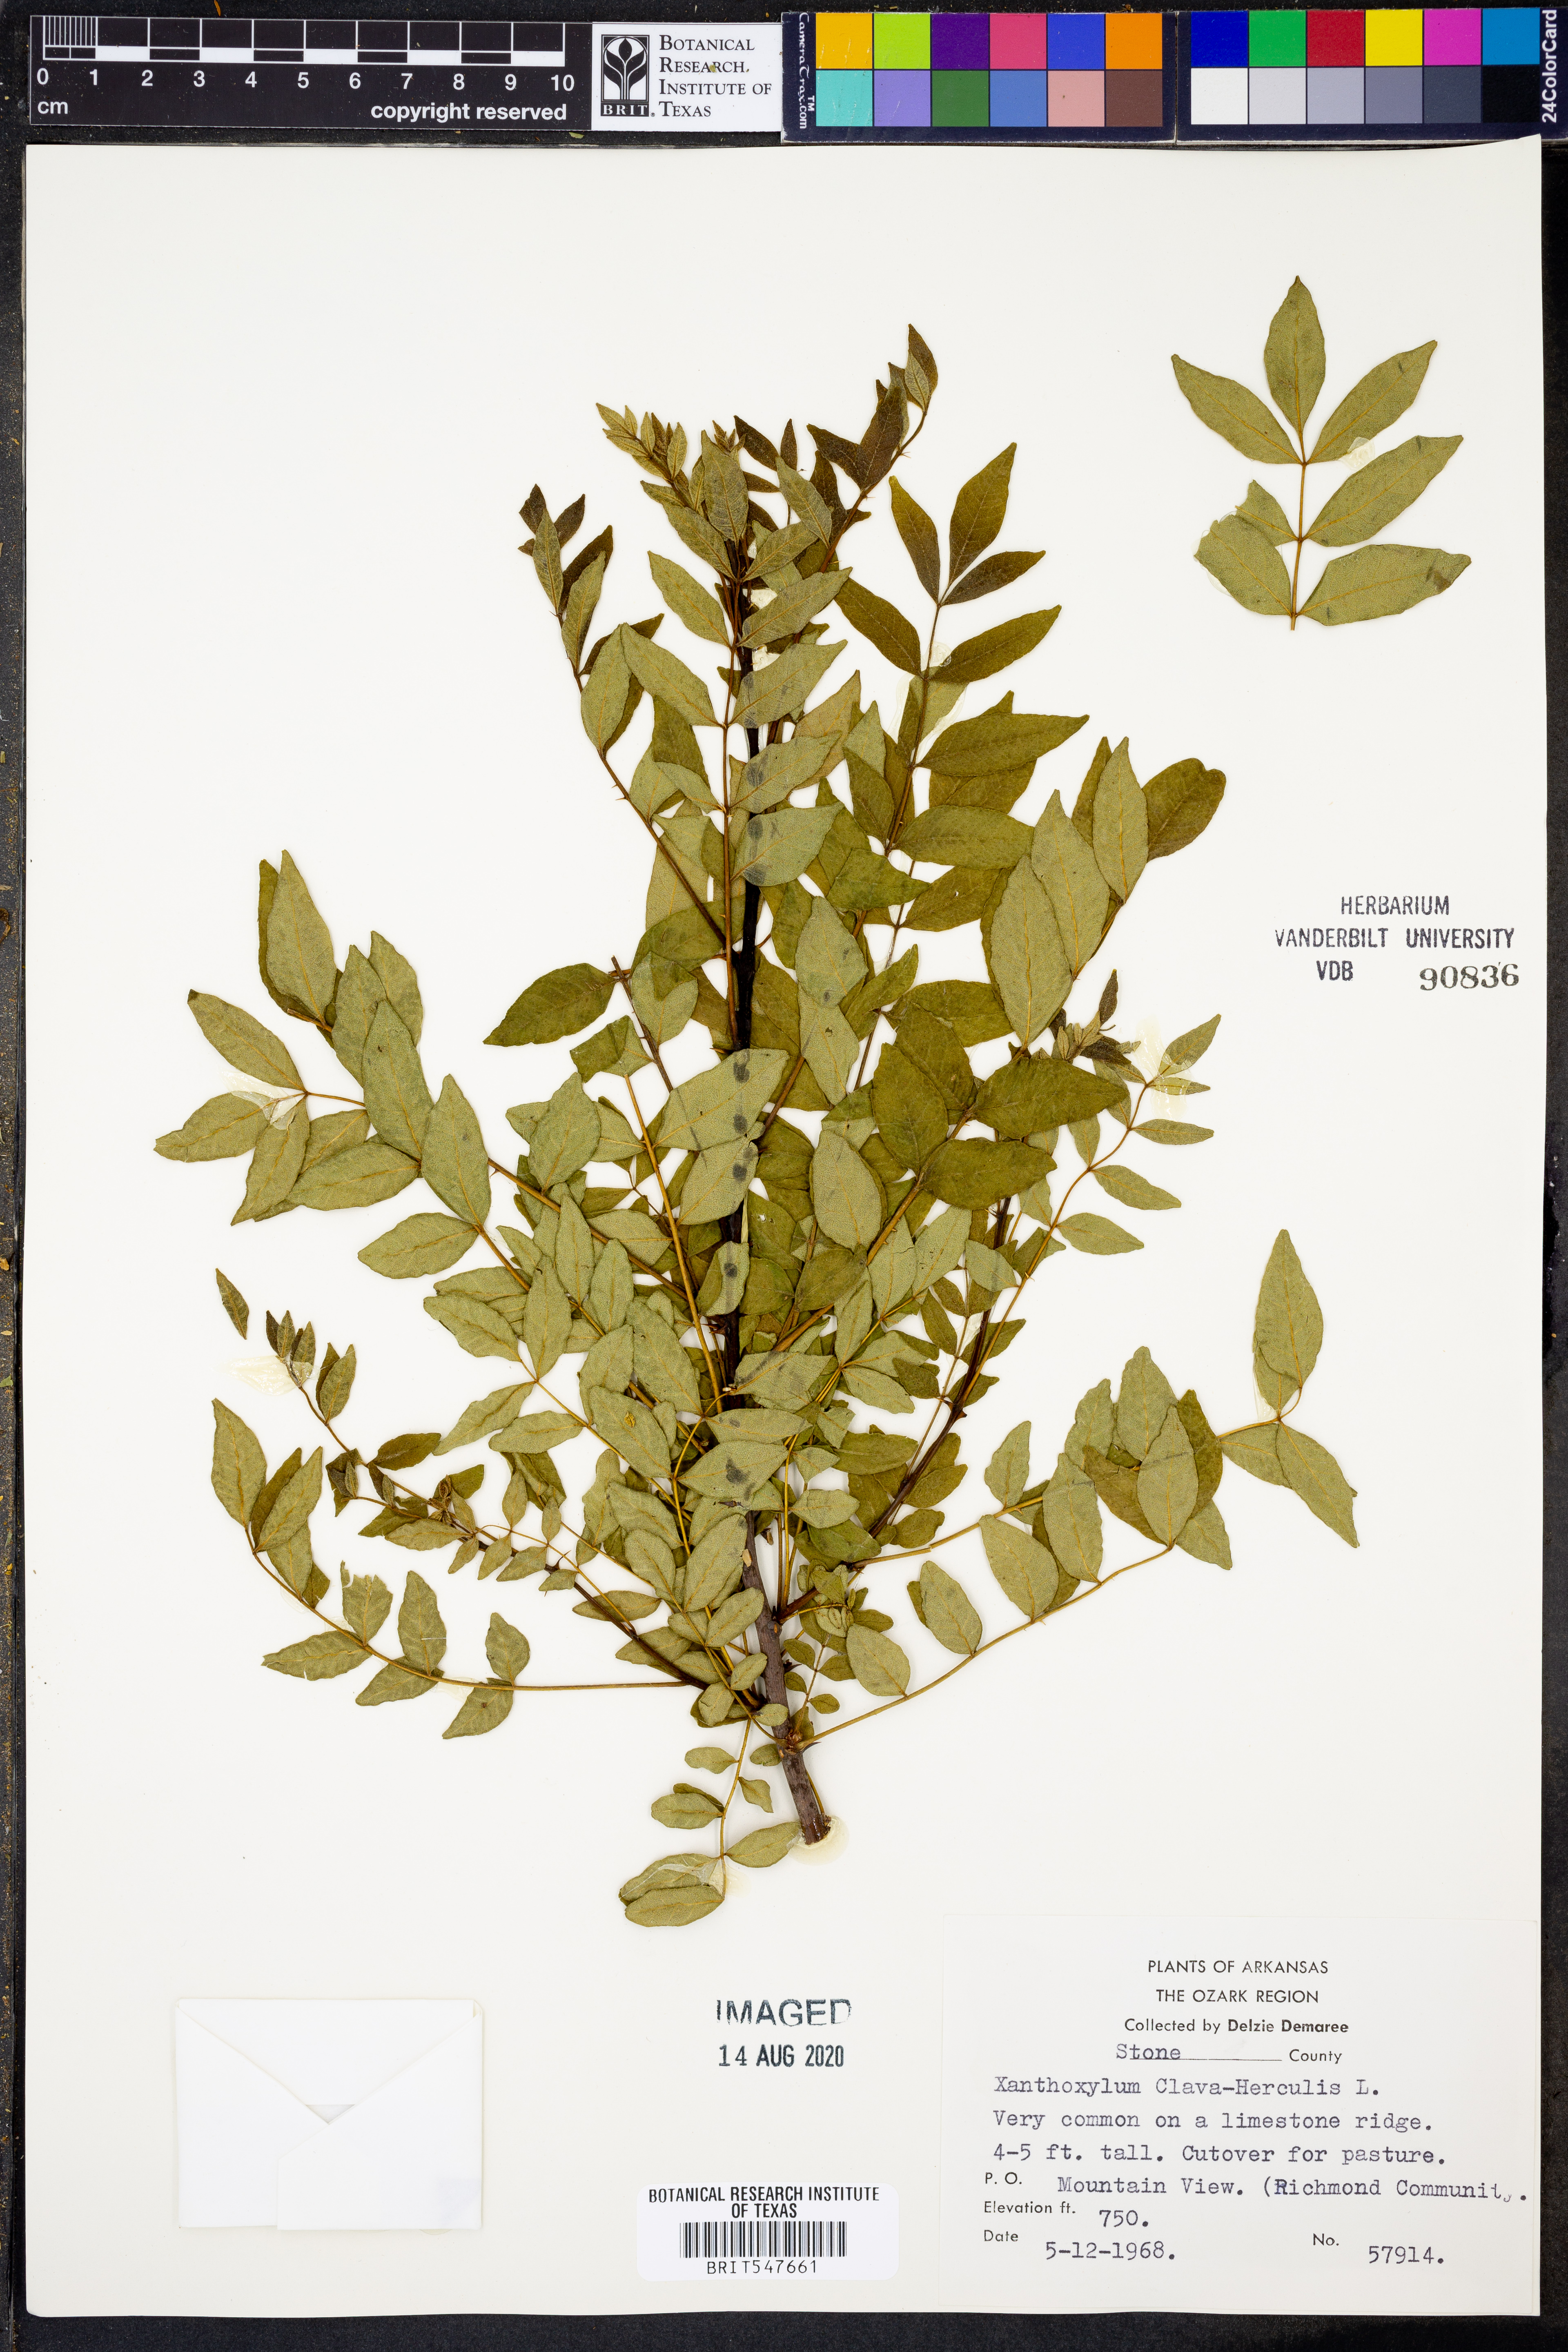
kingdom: Plantae
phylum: Tracheophyta
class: Magnoliopsida
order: Sapindales
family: Rutaceae
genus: Zanthoxylum
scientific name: Zanthoxylum avicennae
